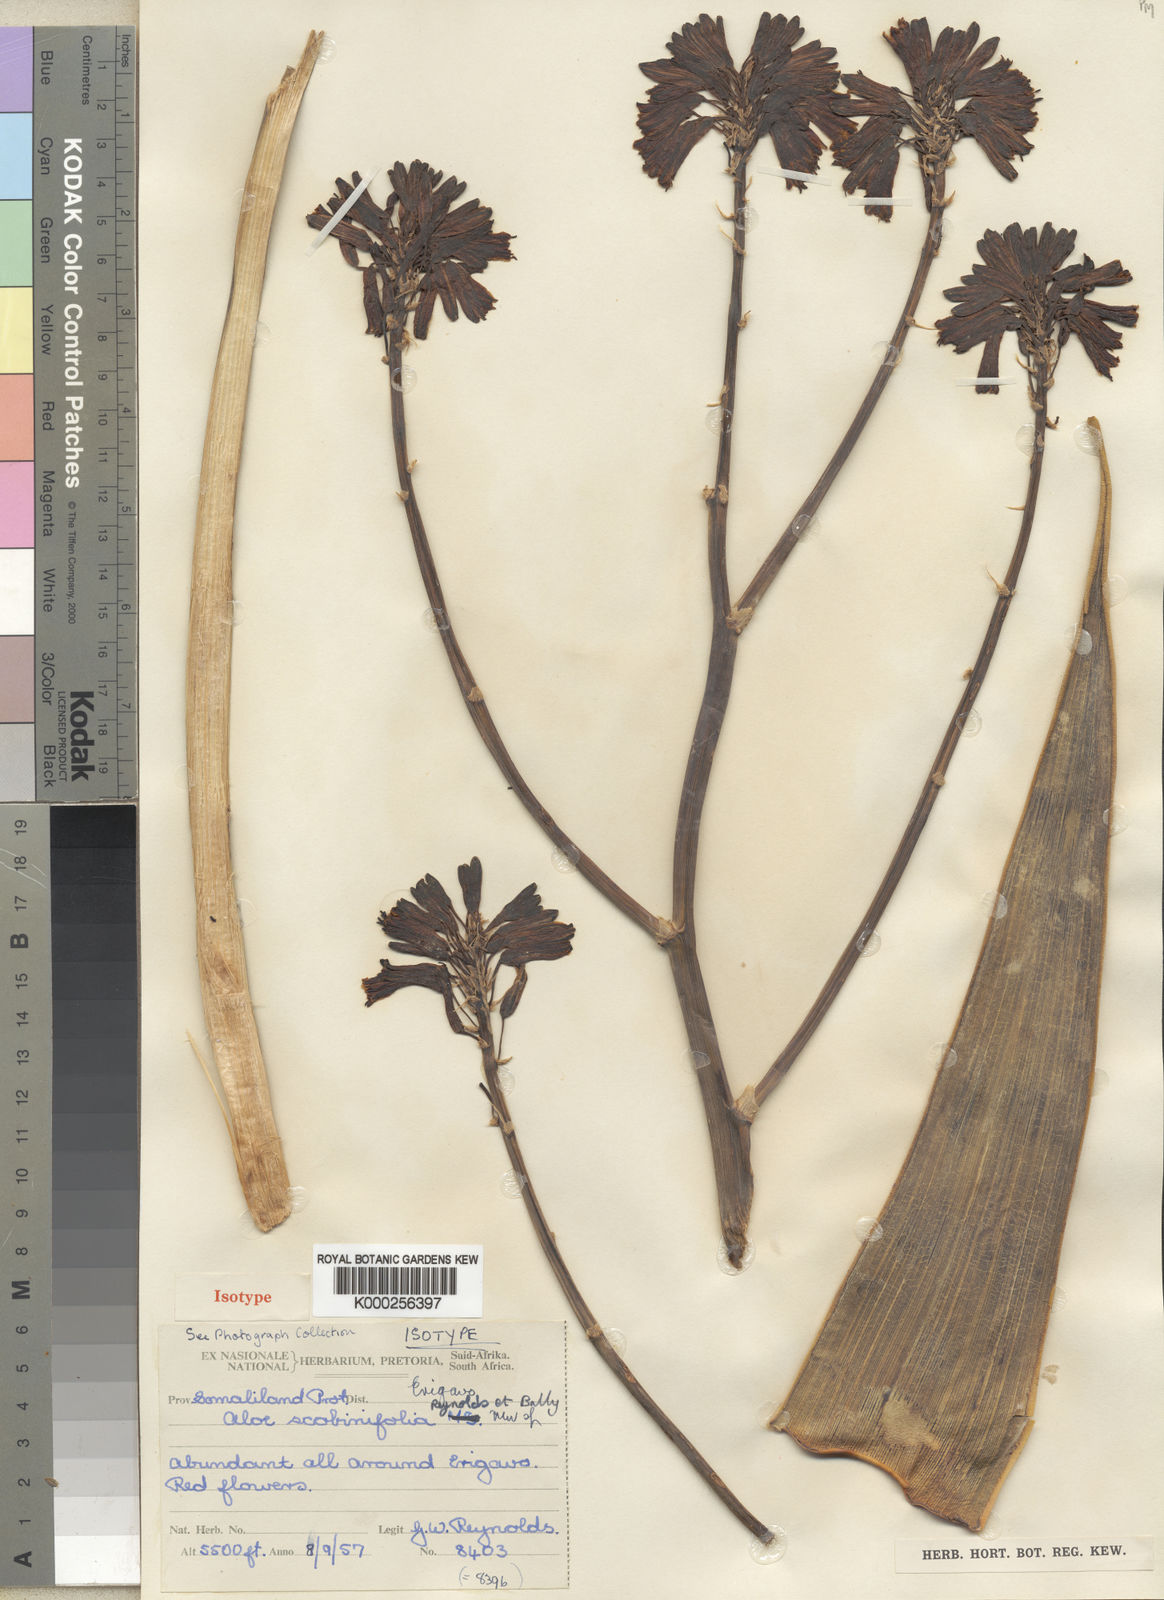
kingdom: Plantae
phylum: Tracheophyta
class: Liliopsida
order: Asparagales
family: Asphodelaceae
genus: Aloe
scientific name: Aloe scobinifolia
